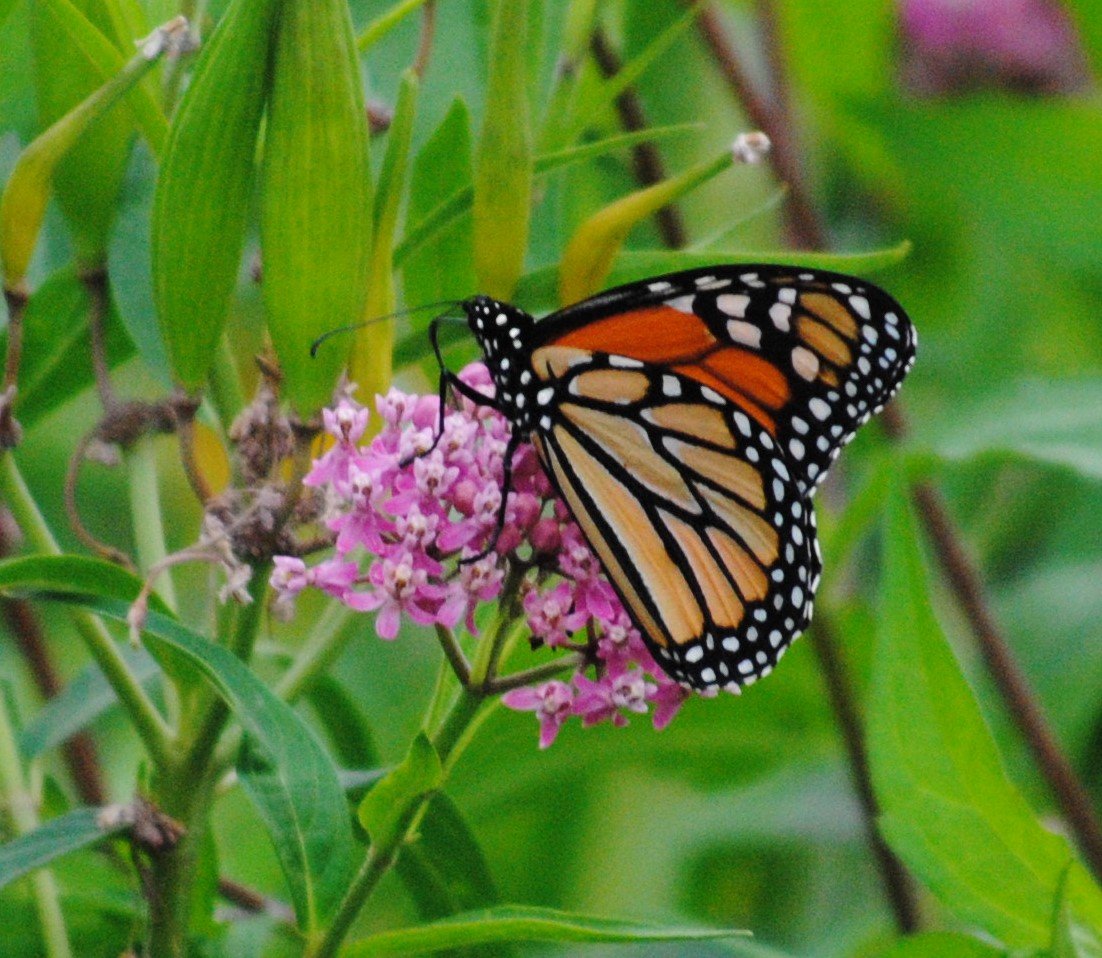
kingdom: Animalia
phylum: Arthropoda
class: Insecta
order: Lepidoptera
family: Nymphalidae
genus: Danaus
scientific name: Danaus plexippus
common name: Monarch
